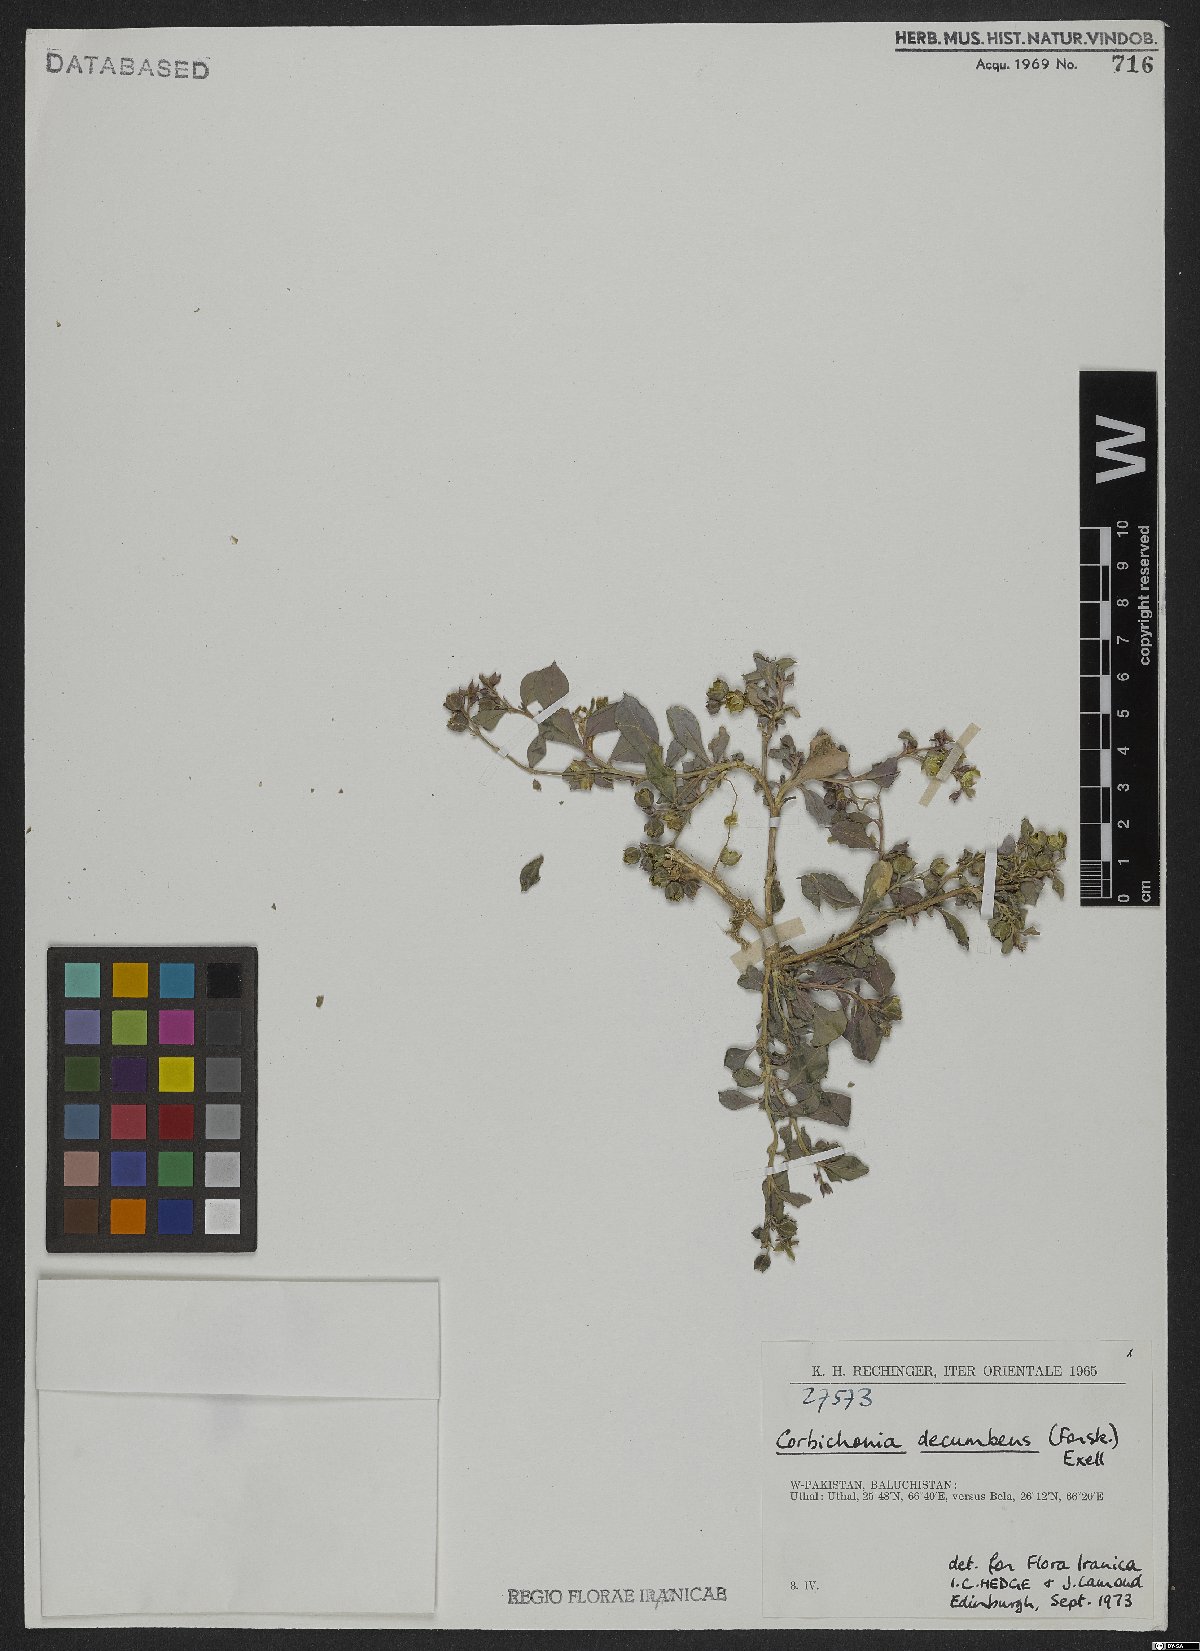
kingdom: Plantae
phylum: Tracheophyta
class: Magnoliopsida
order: Caryophyllales
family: Corbichoniaceae
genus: Corbichonia
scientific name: Corbichonia decumbens
